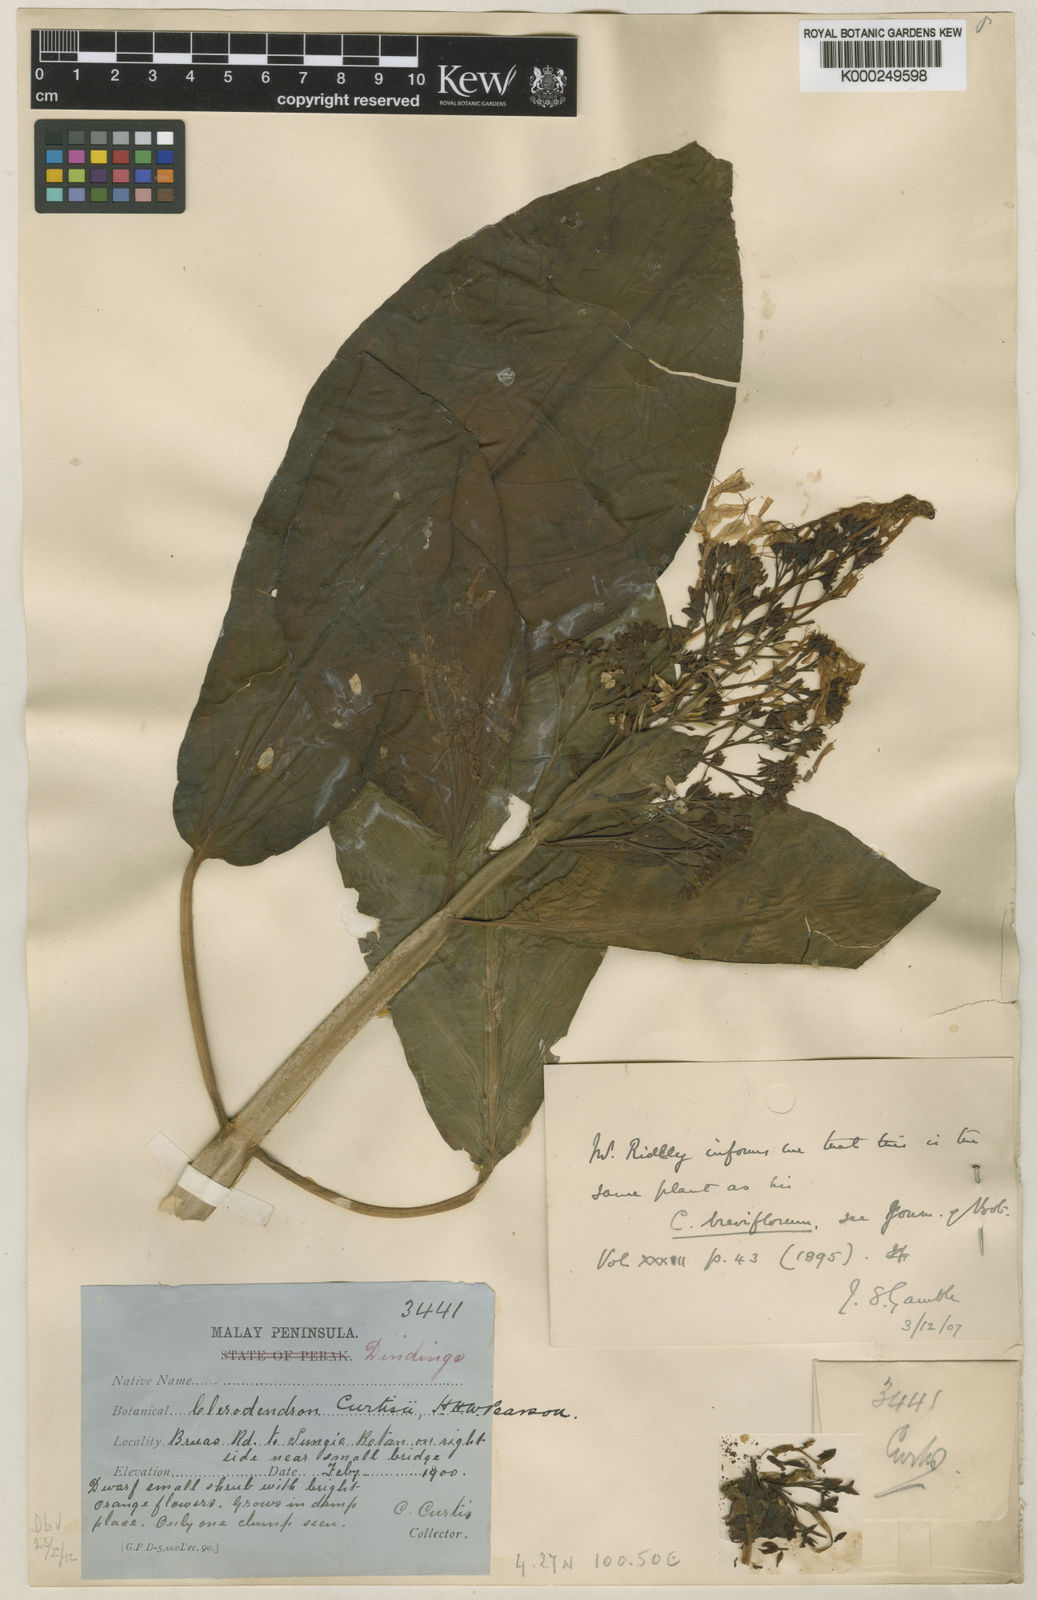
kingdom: Plantae
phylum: Tracheophyta
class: Magnoliopsida
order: Lamiales
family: Lamiaceae
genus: Clerodendrum
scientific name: Clerodendrum myrmecophilum
